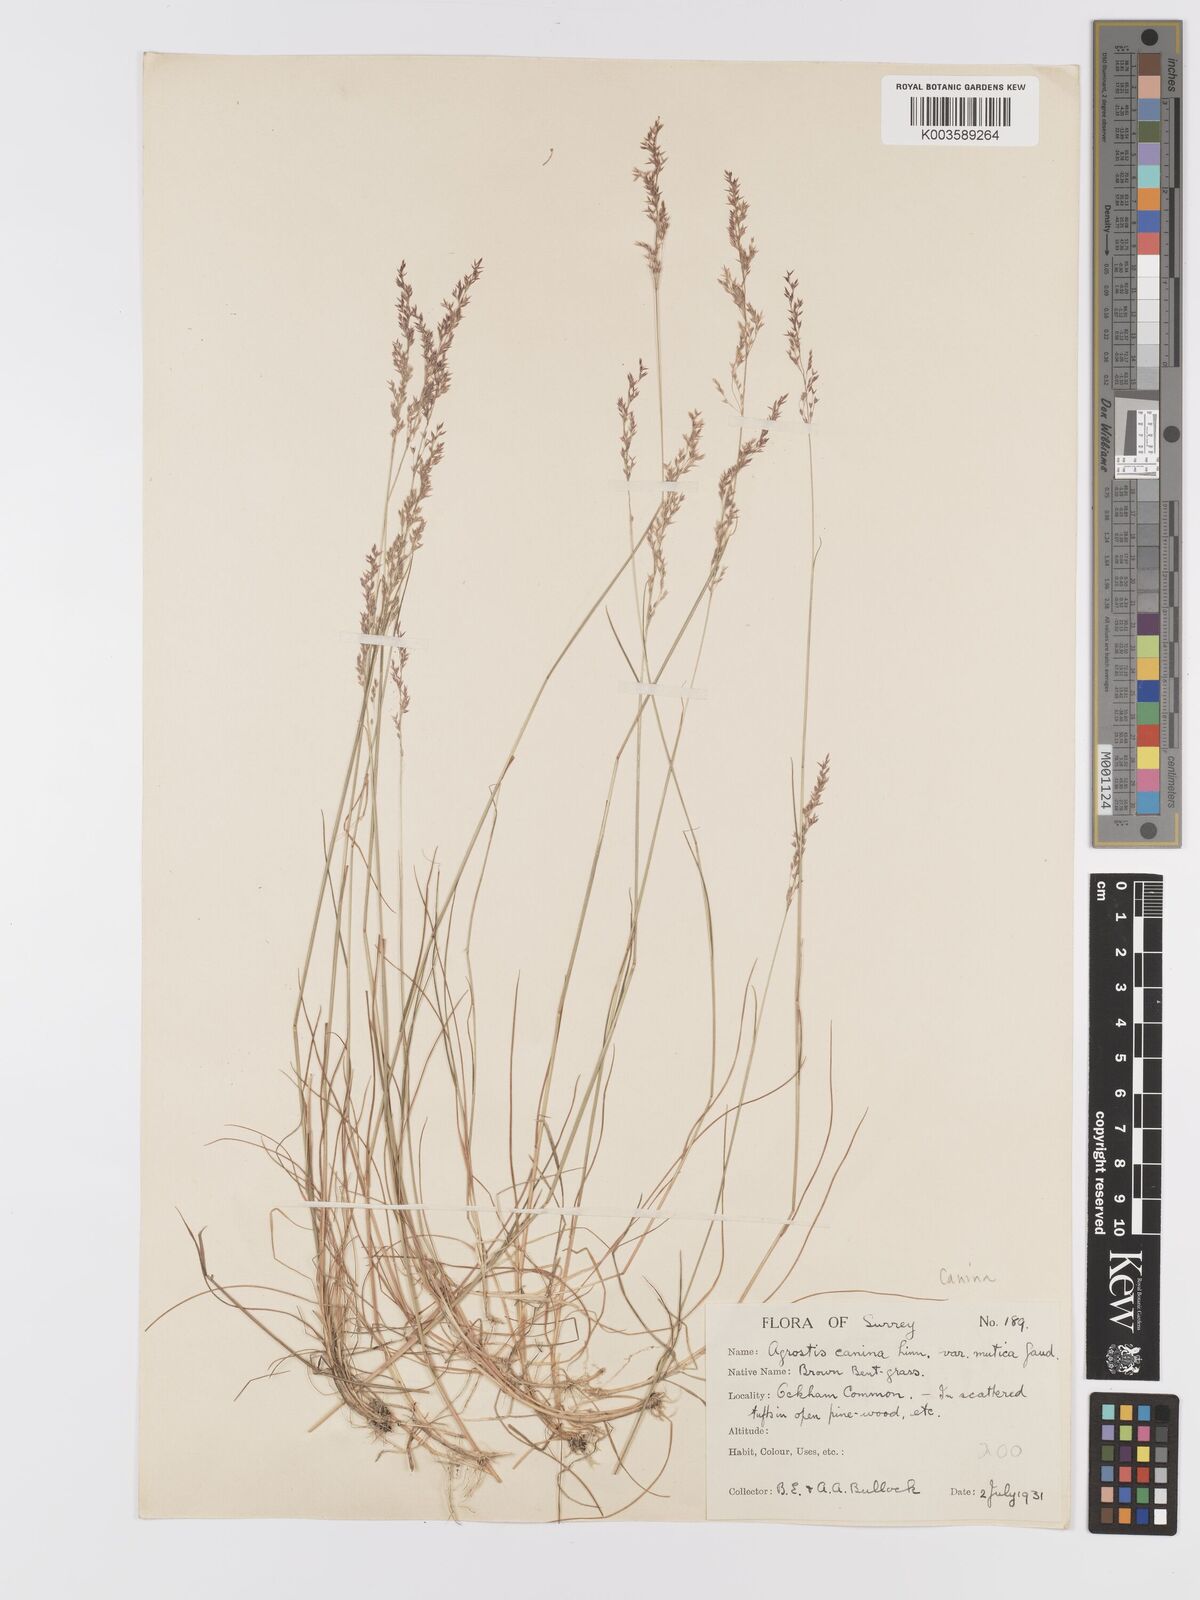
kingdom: Plantae
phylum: Tracheophyta
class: Liliopsida
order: Poales
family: Poaceae
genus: Agrostis
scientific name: Agrostis canina
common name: Velvet bent
